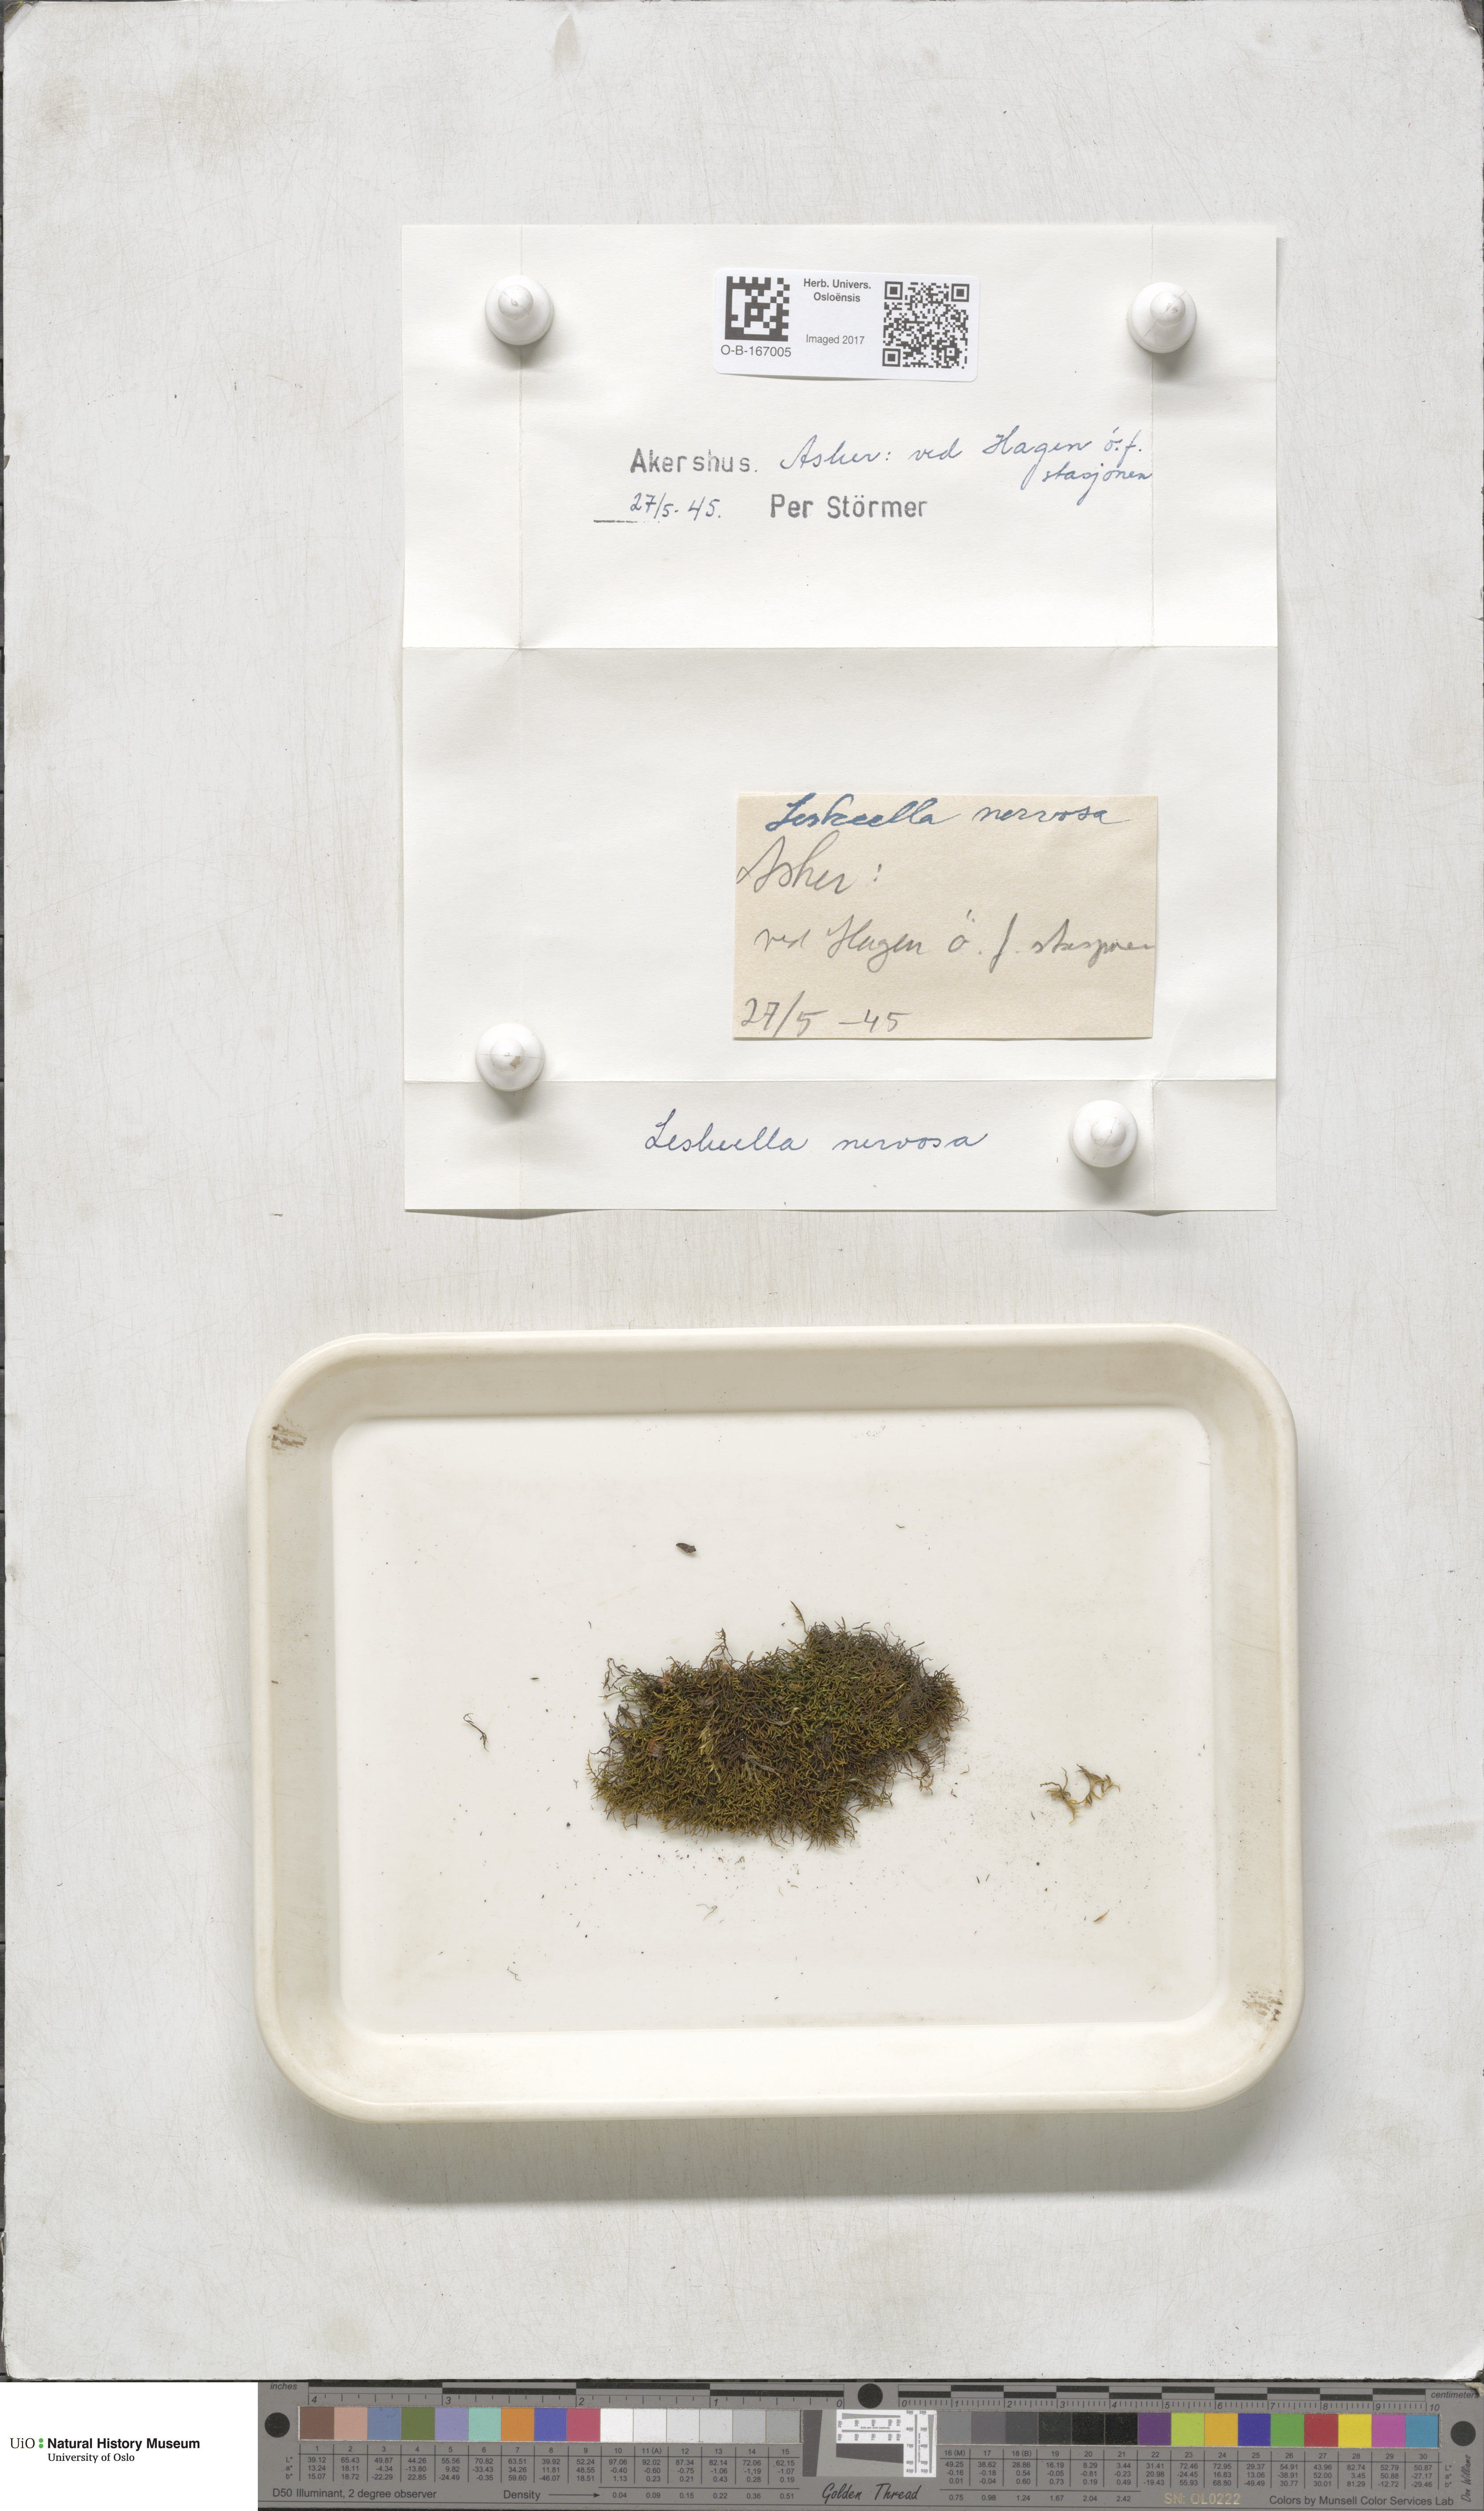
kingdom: Plantae
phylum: Bryophyta
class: Bryopsida
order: Hypnales
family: Pseudoleskeellaceae
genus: Pseudoleskeella
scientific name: Pseudoleskeella nervosa
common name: Nerved leske's moss
